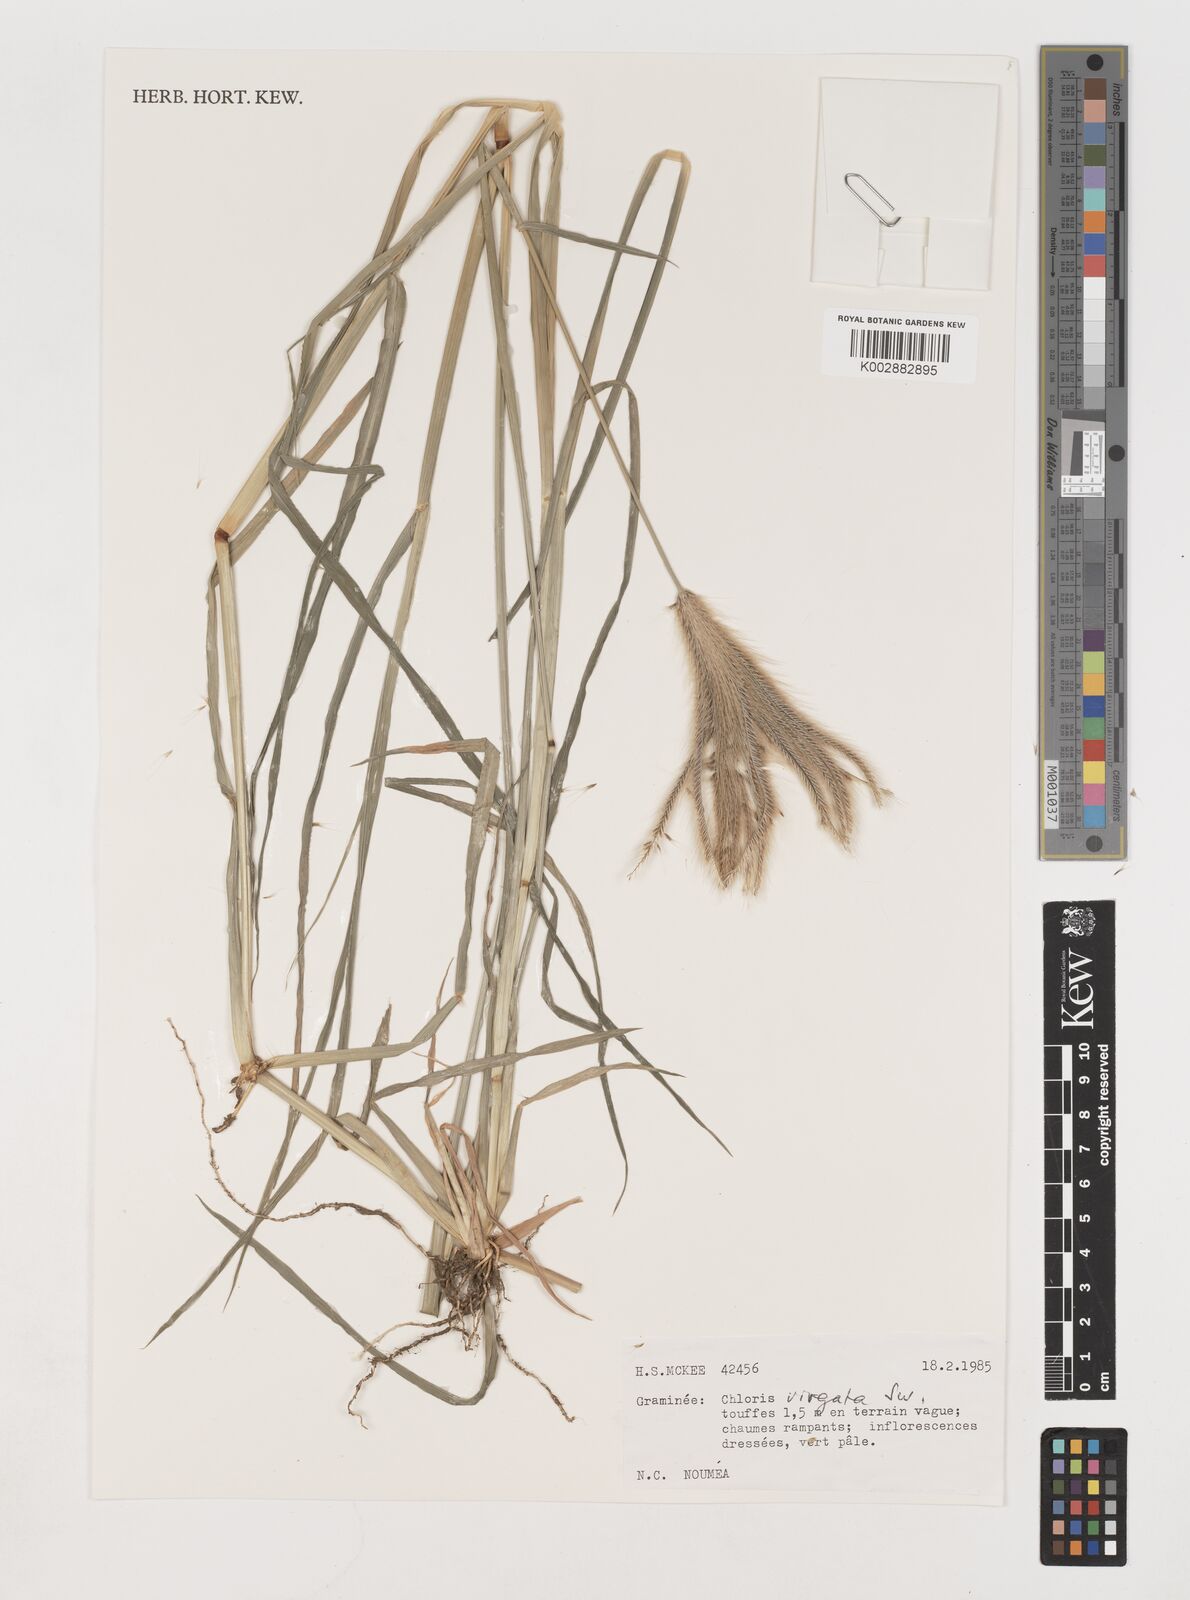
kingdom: Plantae
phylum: Tracheophyta
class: Liliopsida
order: Poales
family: Poaceae
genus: Chloris
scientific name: Chloris virgata
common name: Feathery rhodes-grass
